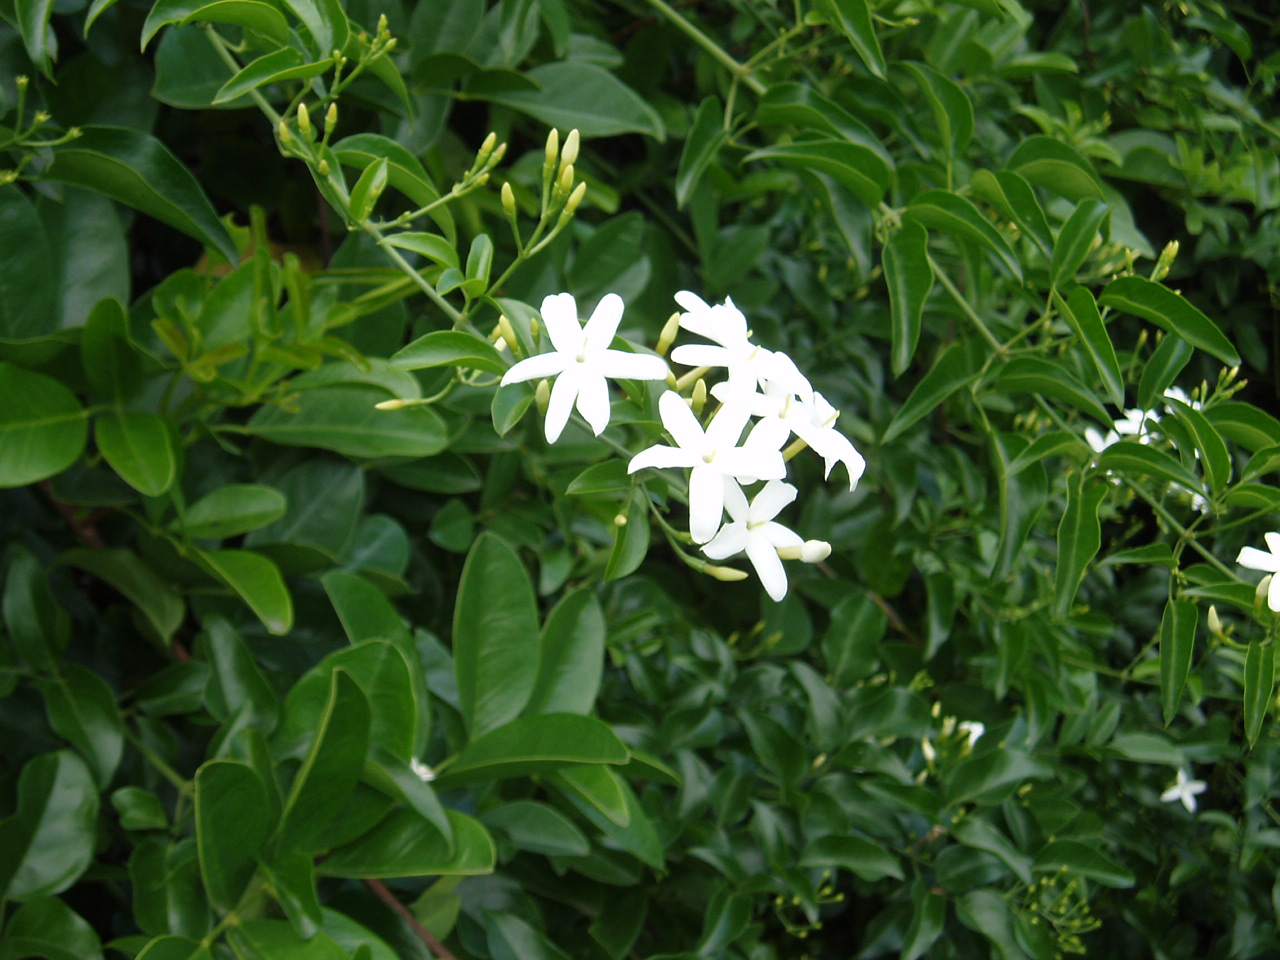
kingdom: Plantae
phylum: Tracheophyta
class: Magnoliopsida
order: Lamiales
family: Oleaceae
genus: Jasminum
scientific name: Jasminum fluminense
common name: Brazilian jasmine
